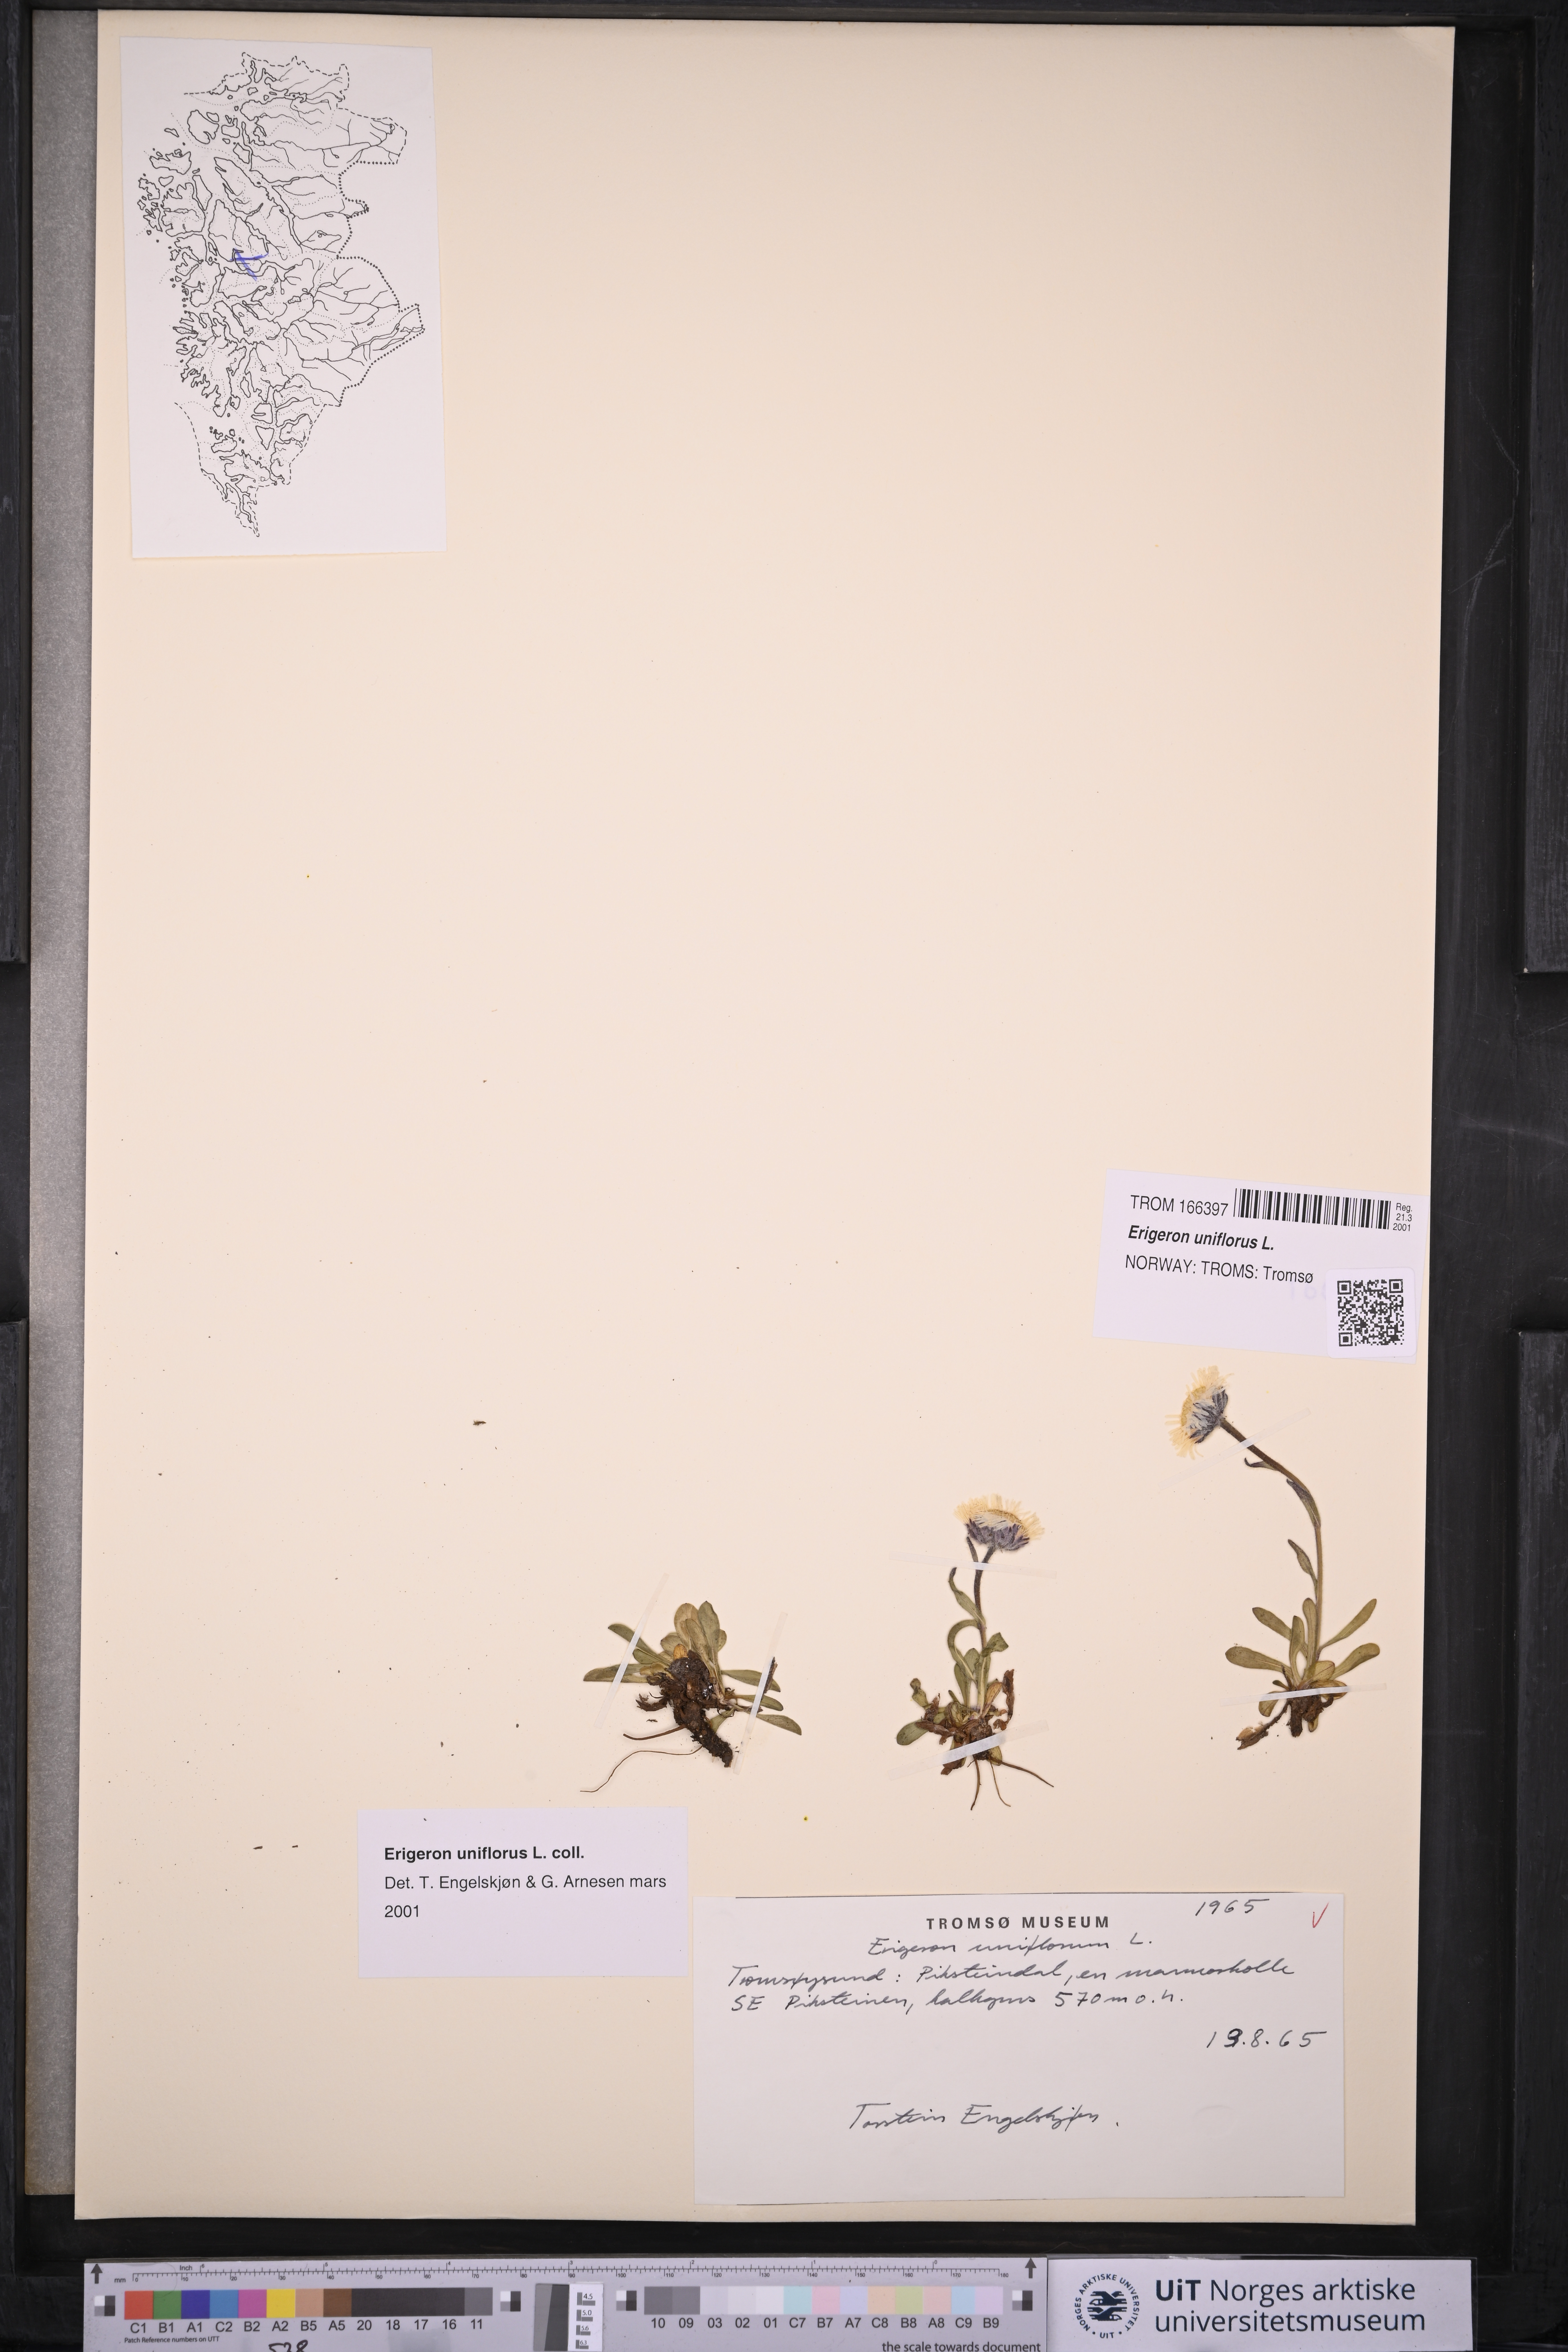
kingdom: Plantae
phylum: Tracheophyta
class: Magnoliopsida
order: Asterales
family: Asteraceae
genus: Erigeron
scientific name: Erigeron uniflorus
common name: Northern daisy
